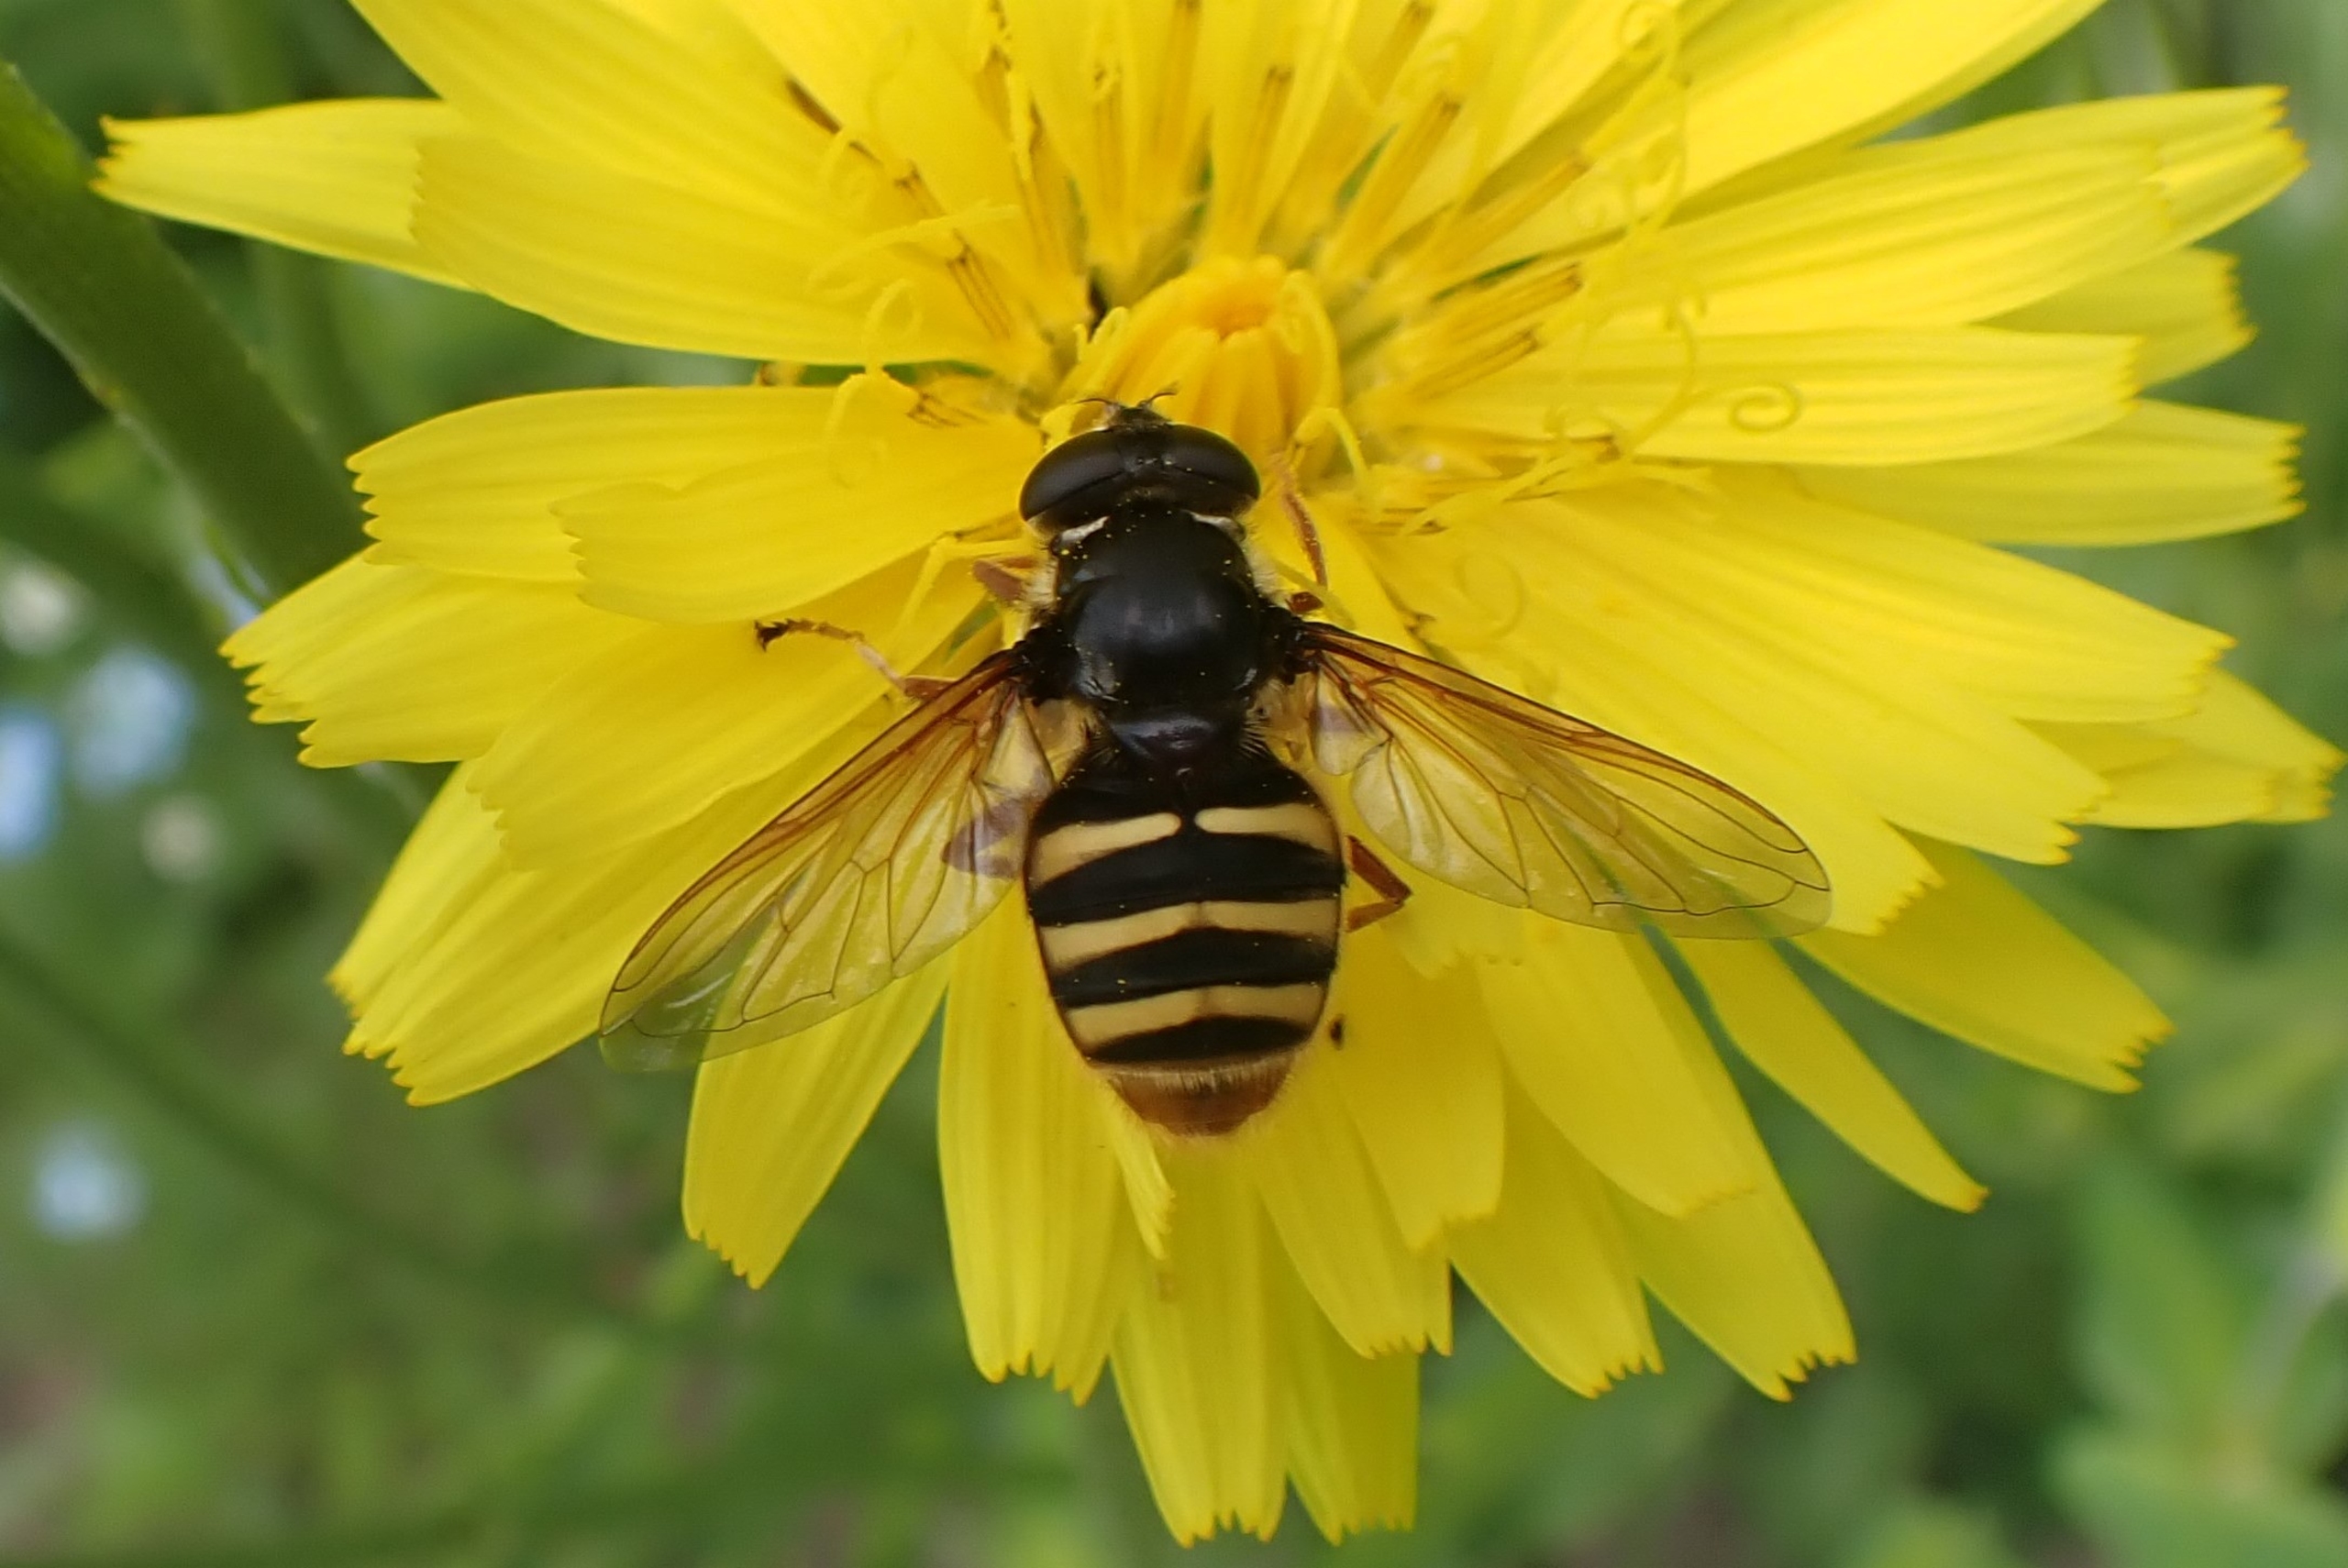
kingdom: Animalia
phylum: Arthropoda
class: Insecta
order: Diptera
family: Syrphidae
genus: Sericomyia
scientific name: Sericomyia silentis
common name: Tørve-silkesvirreflue
